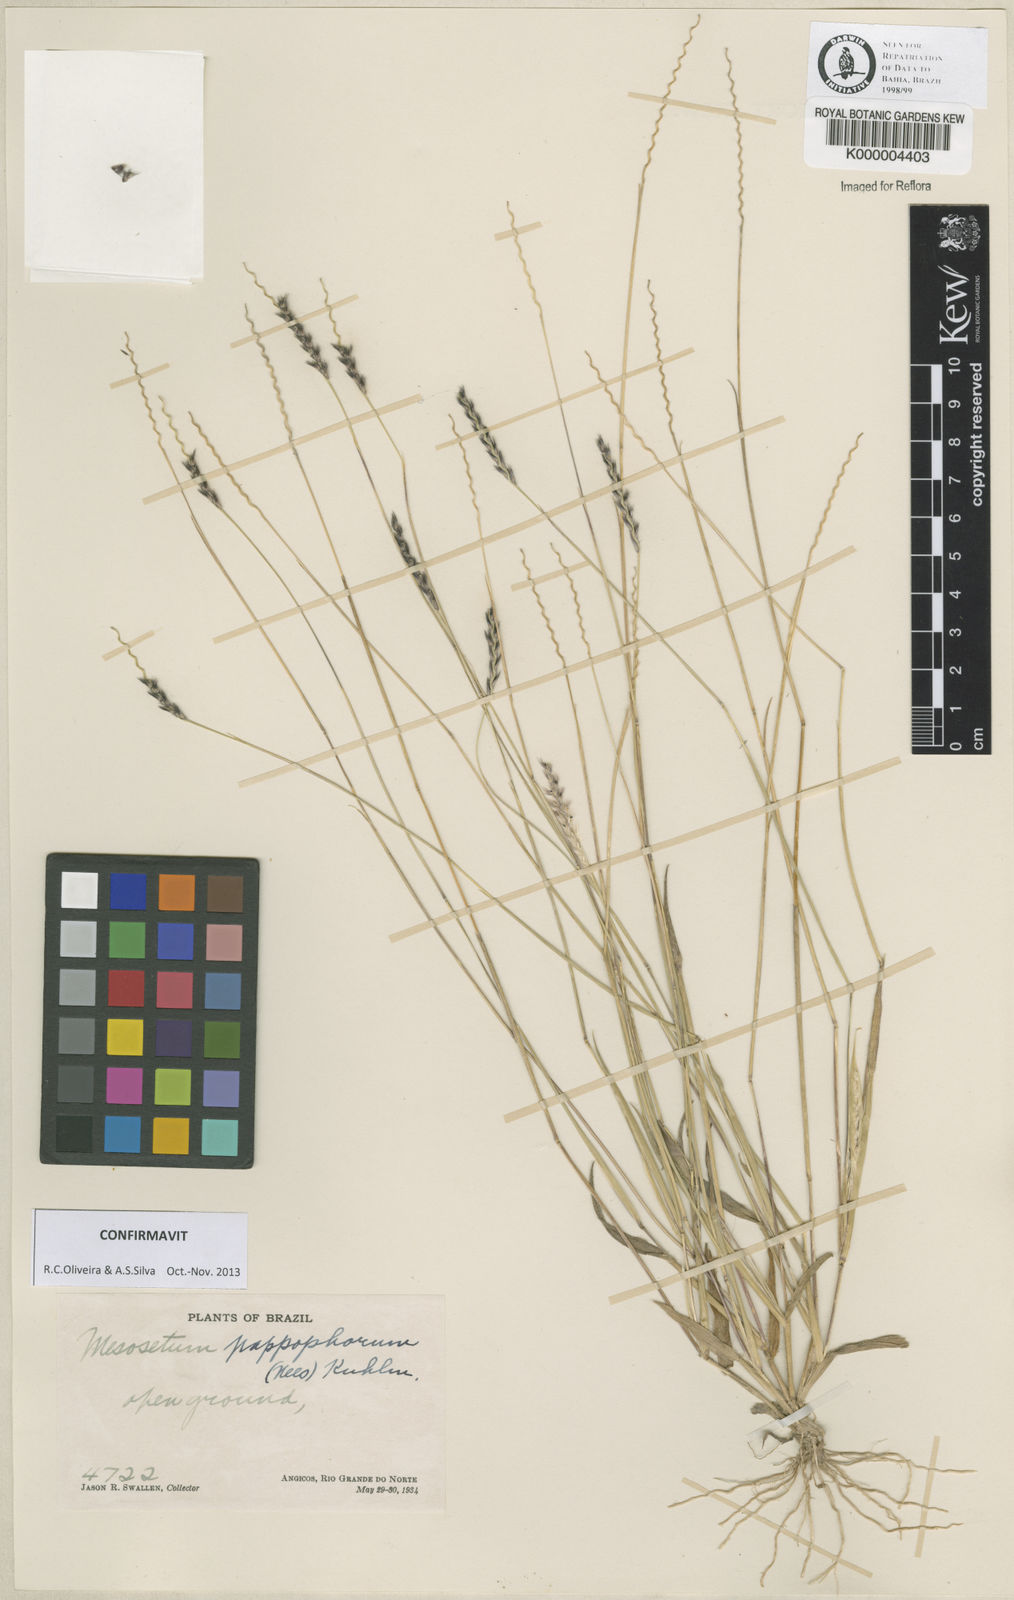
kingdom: Plantae
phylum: Tracheophyta
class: Liliopsida
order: Poales
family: Poaceae
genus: Mesosetum
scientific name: Mesosetum pappophorum
